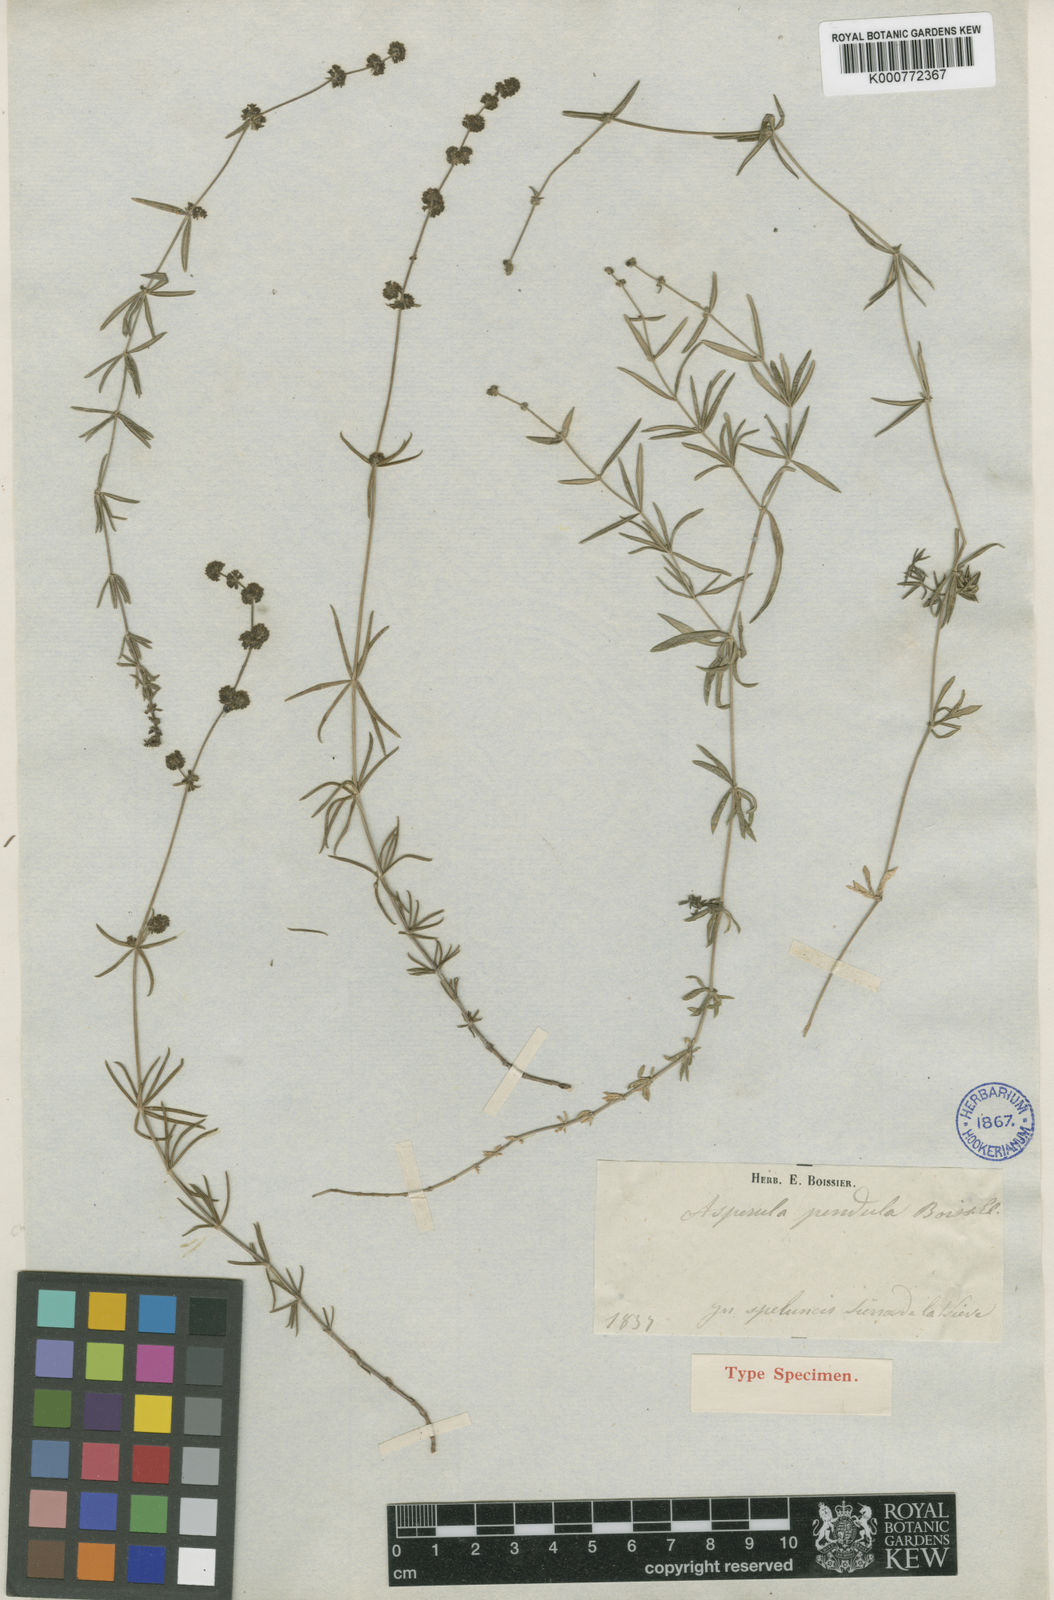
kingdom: Plantae
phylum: Tracheophyta
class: Magnoliopsida
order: Gentianales
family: Rubiaceae
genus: Galium
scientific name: Galium baeticum
